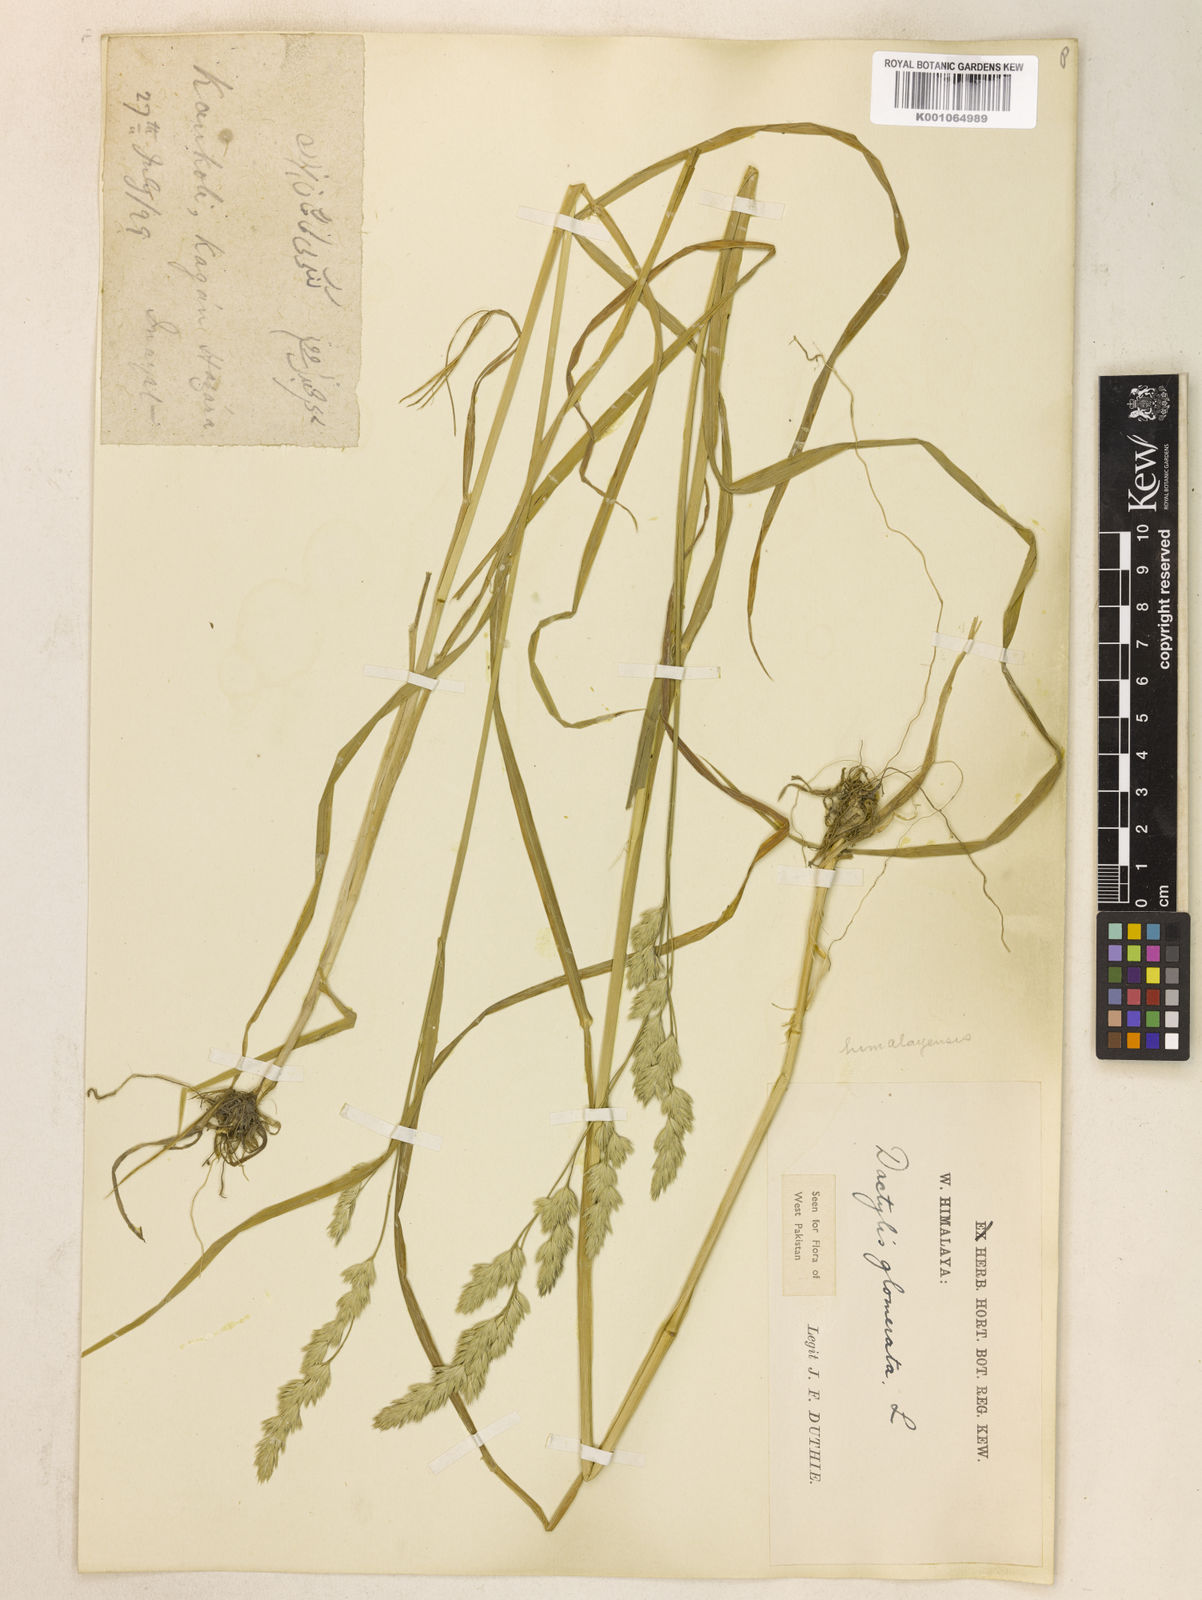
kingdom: Plantae
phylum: Tracheophyta
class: Liliopsida
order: Poales
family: Poaceae
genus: Dactylis
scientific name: Dactylis glomerata
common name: Orchardgrass
